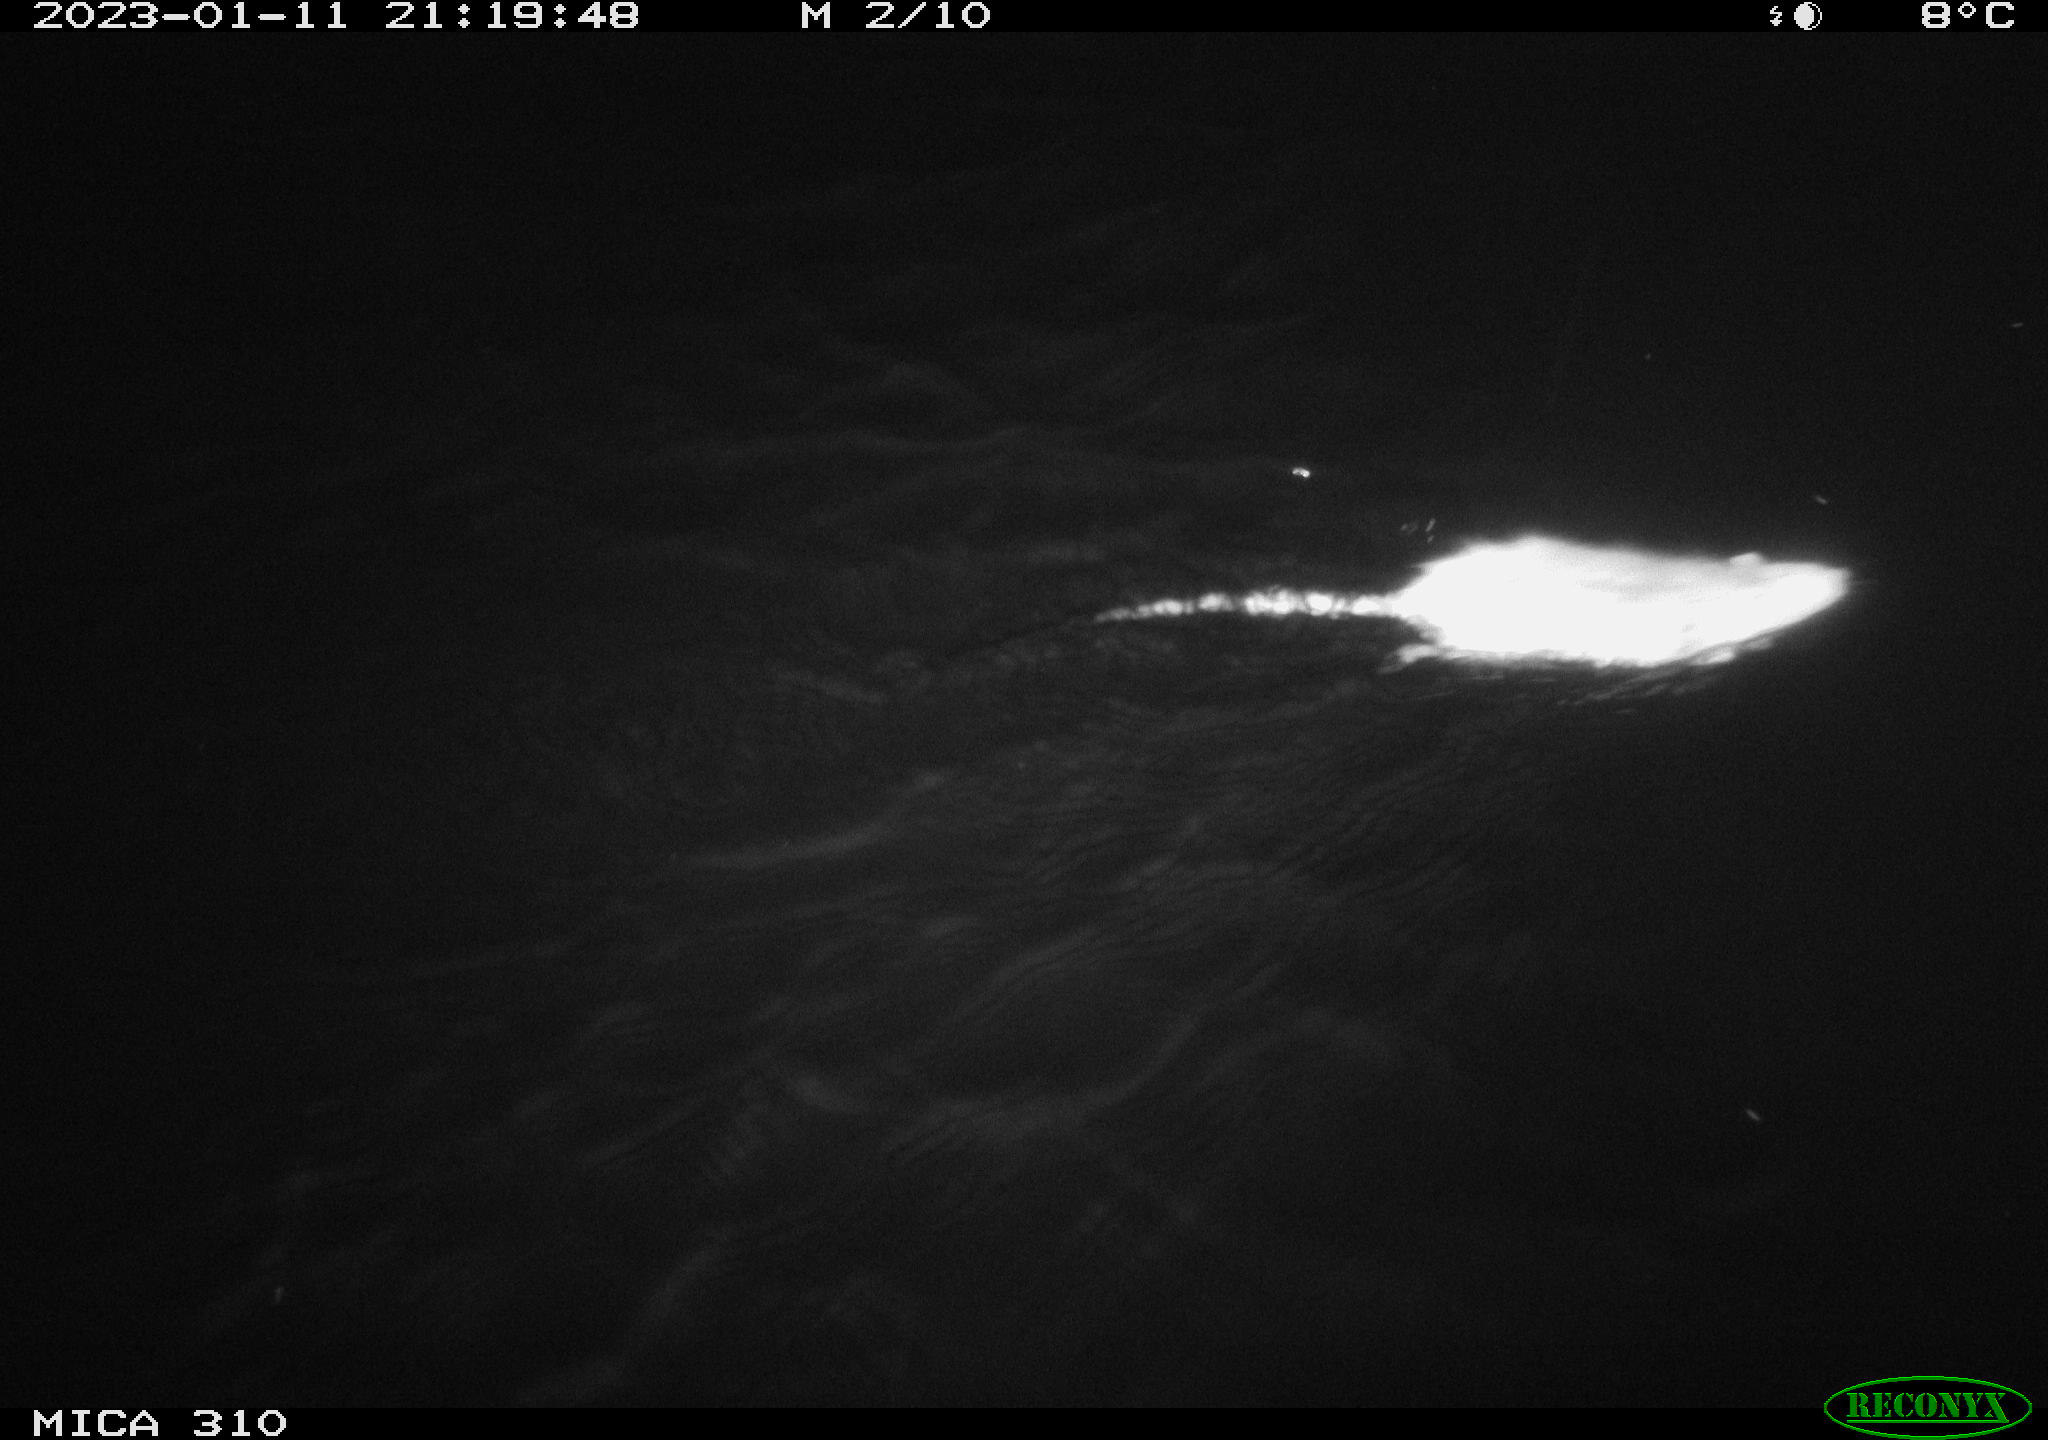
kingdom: Animalia
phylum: Chordata
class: Mammalia
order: Rodentia
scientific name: Rodentia
